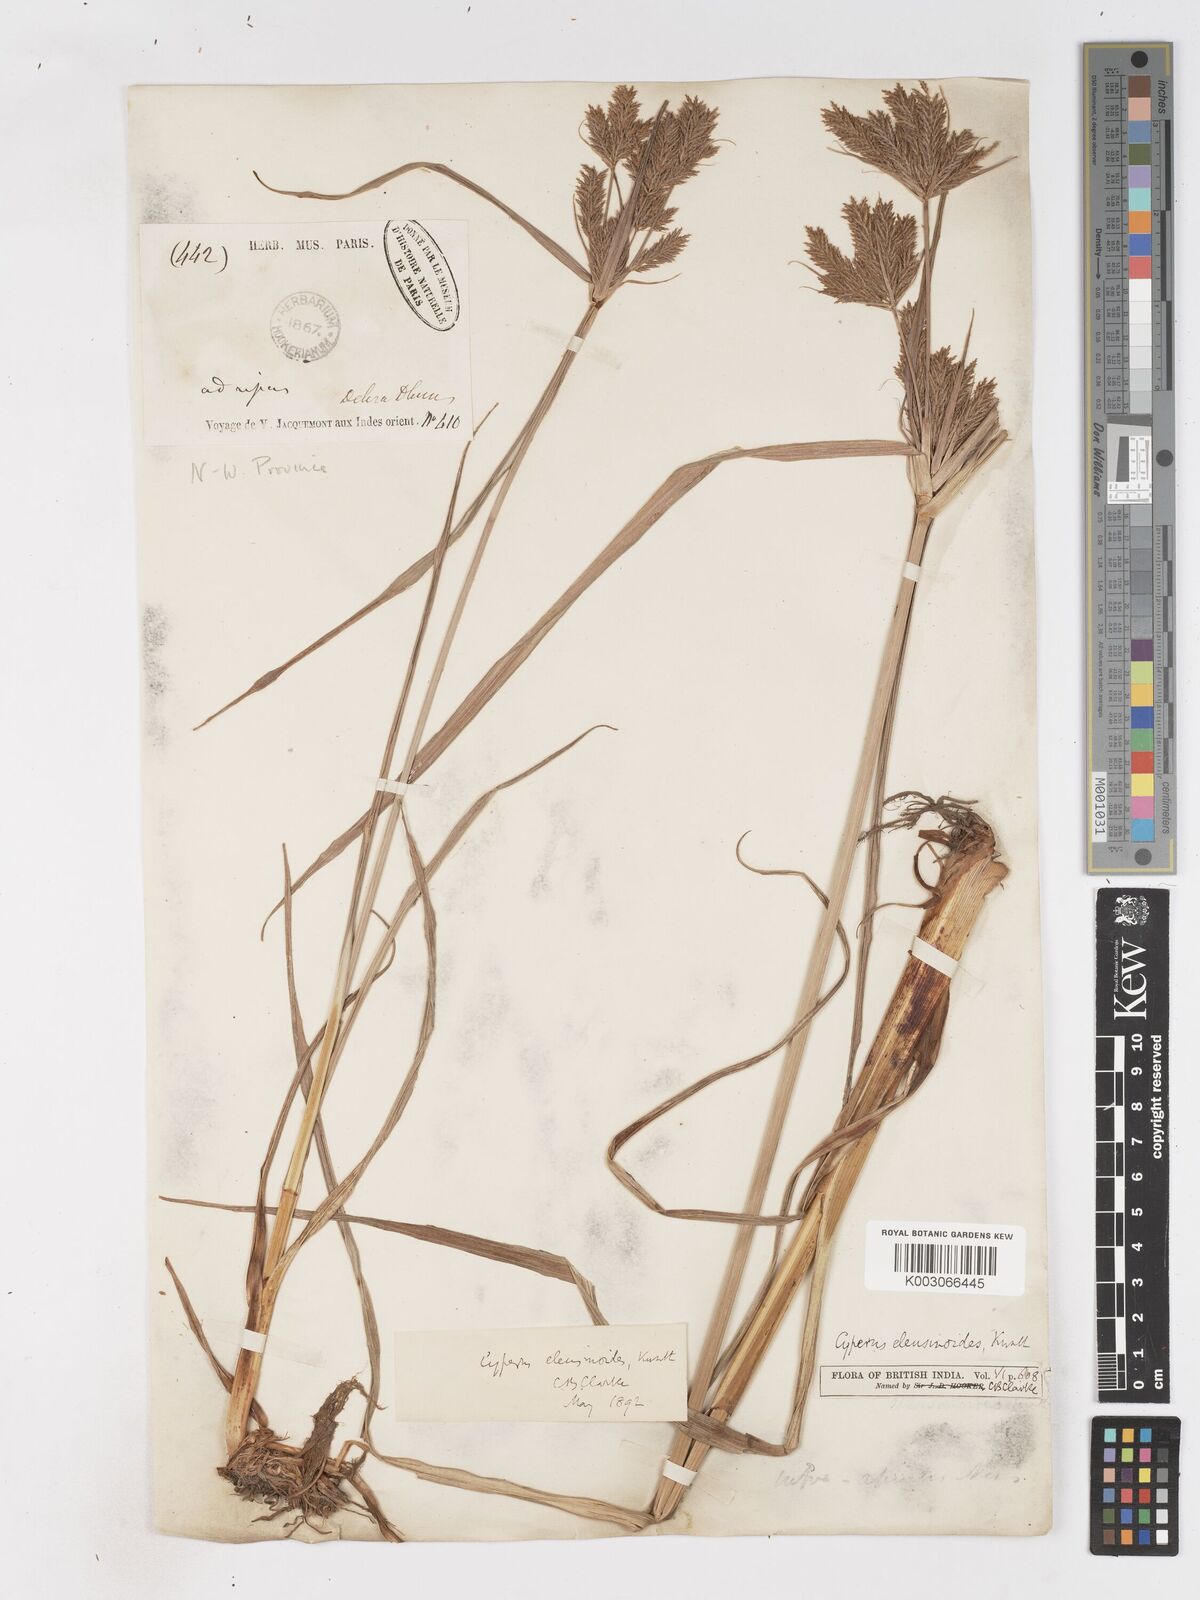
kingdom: Plantae
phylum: Tracheophyta
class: Liliopsida
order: Poales
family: Cyperaceae
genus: Cyperus
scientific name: Cyperus nutans
